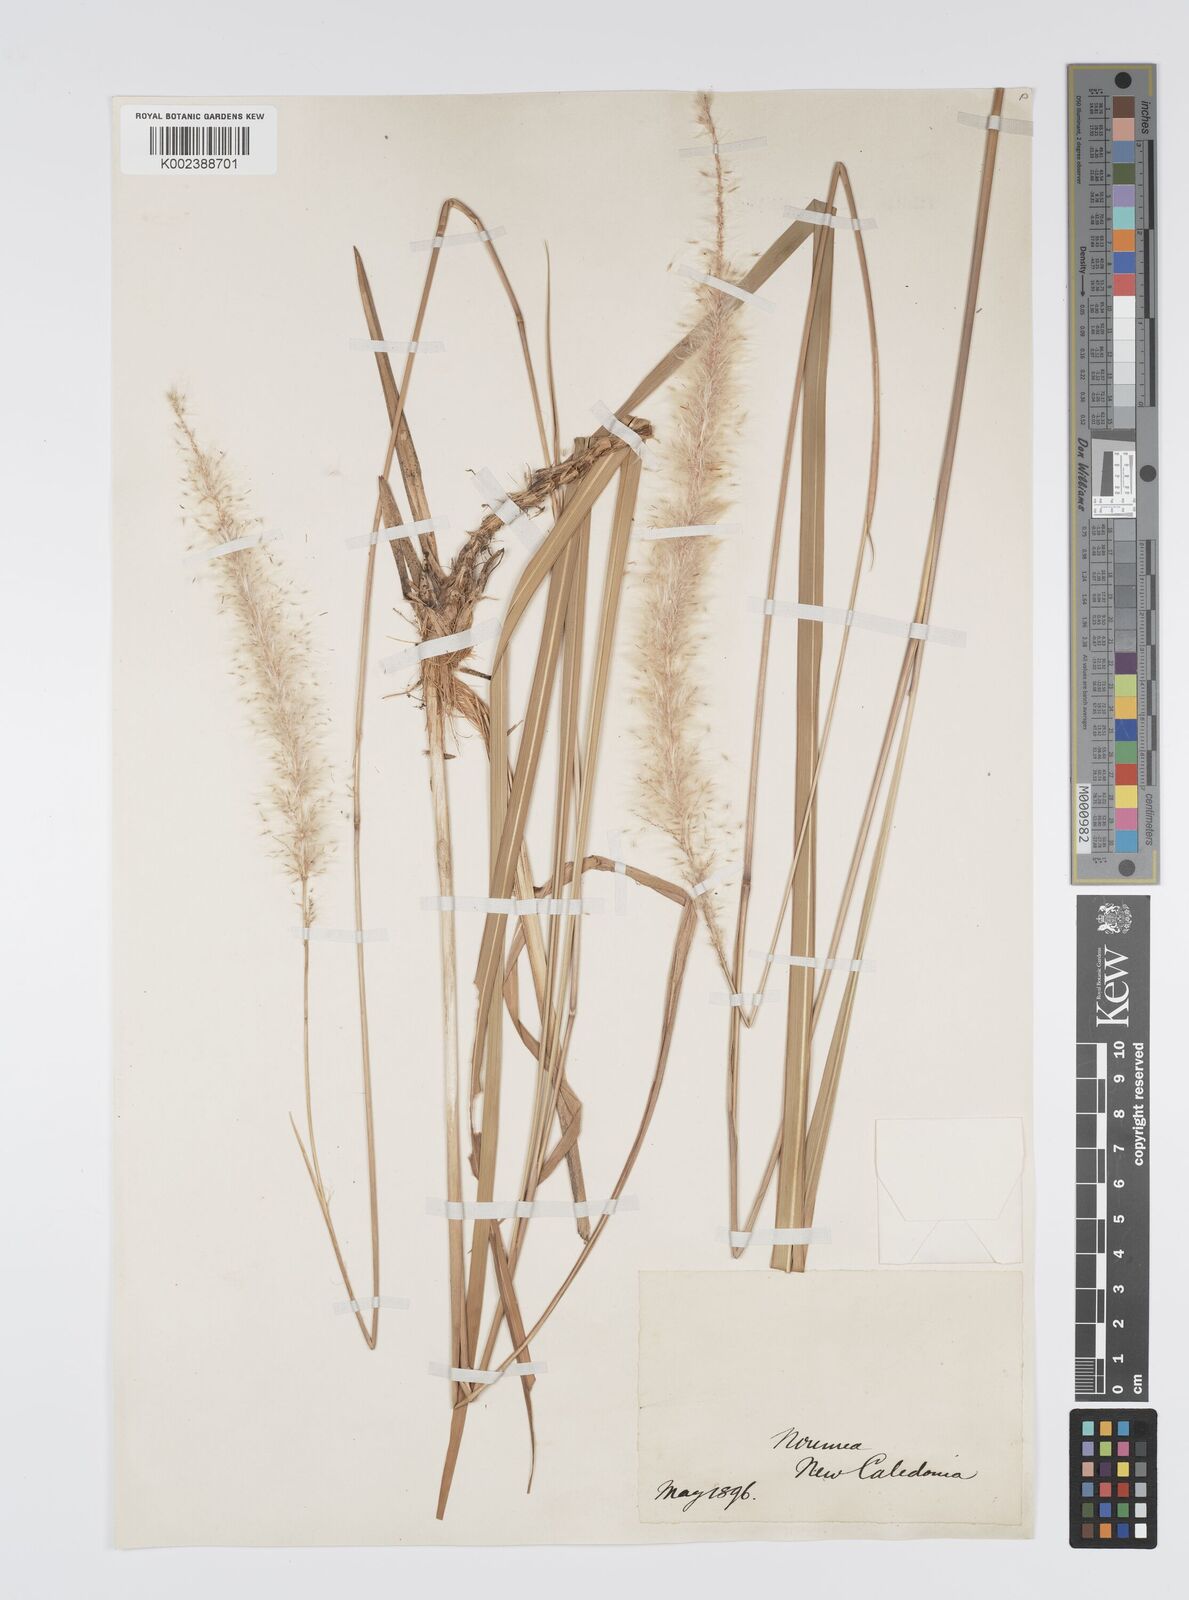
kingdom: Plantae
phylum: Tracheophyta
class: Liliopsida
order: Poales
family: Poaceae
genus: Imperata
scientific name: Imperata cylindrica
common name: Cogongrass
